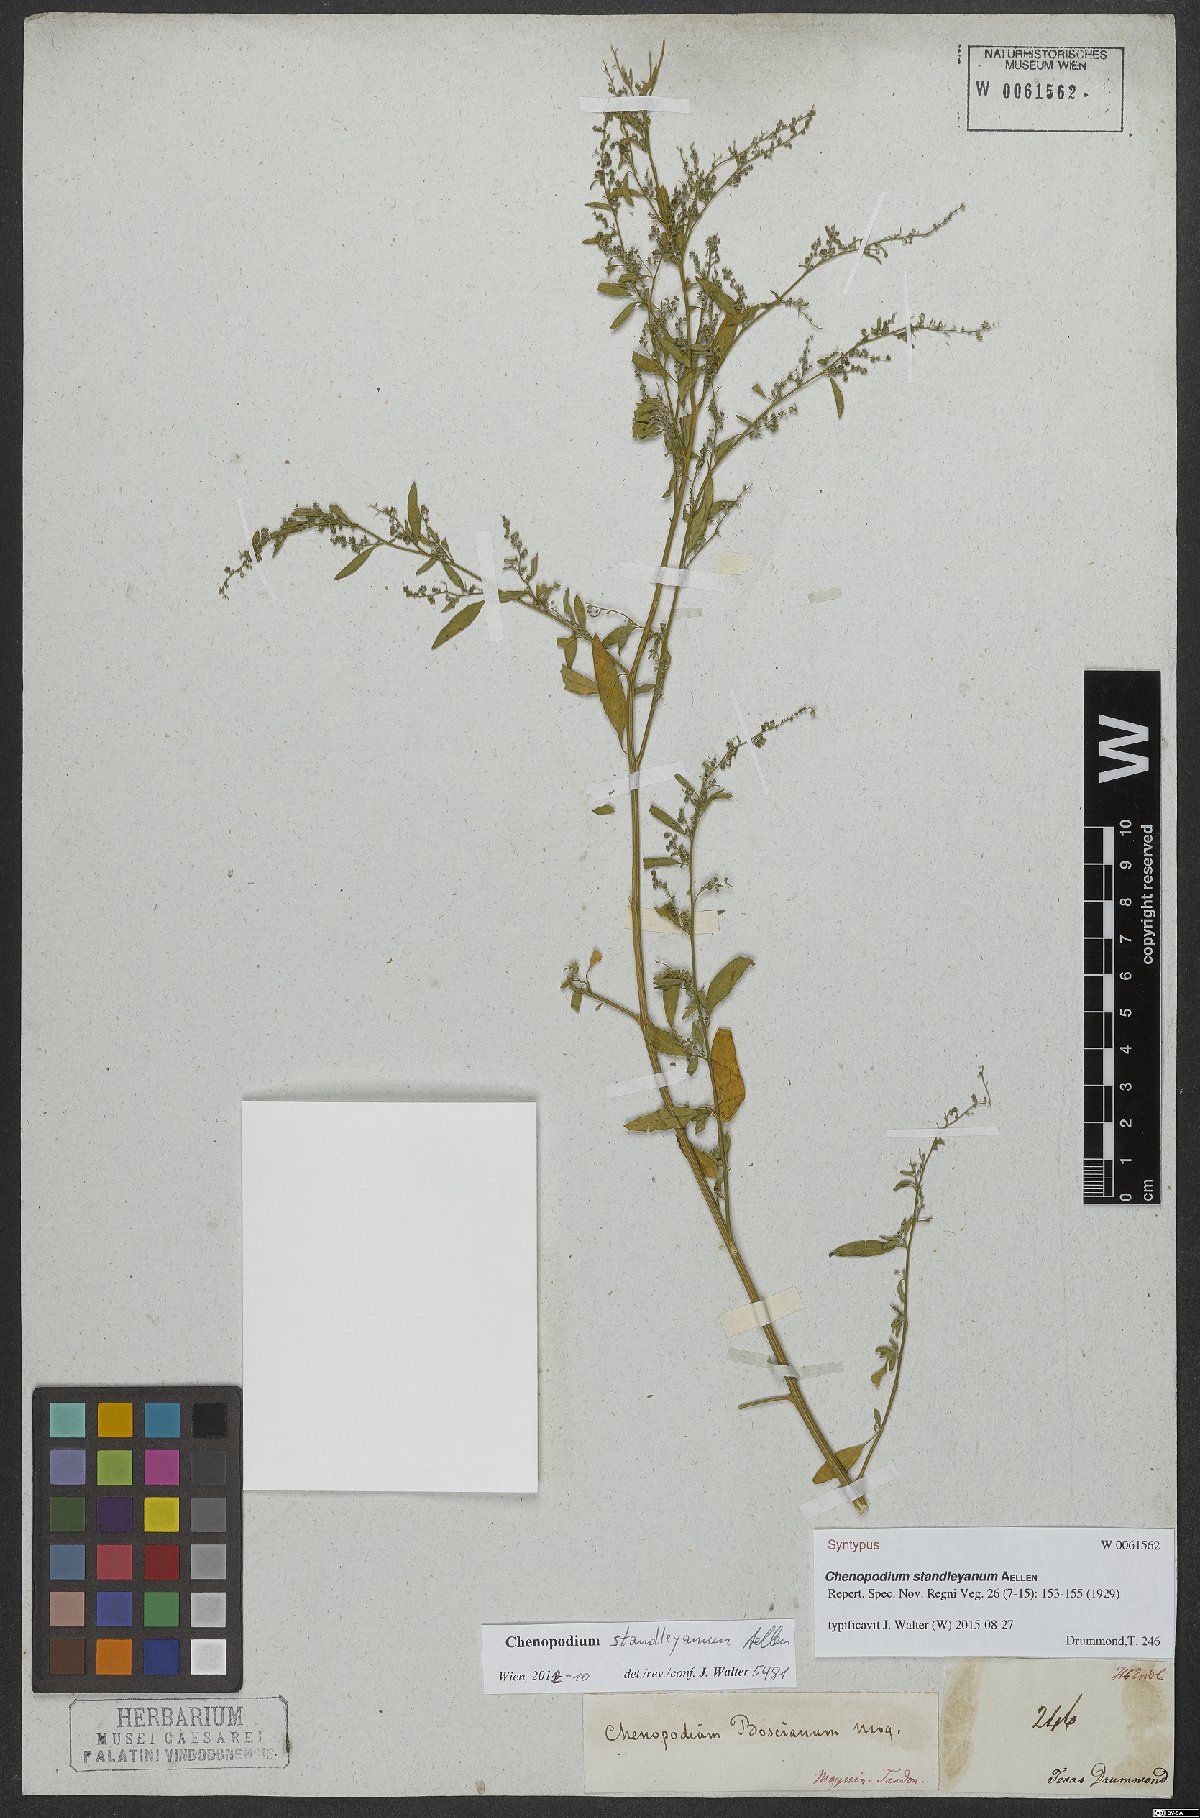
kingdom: Plantae
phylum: Tracheophyta
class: Magnoliopsida
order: Caryophyllales
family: Amaranthaceae
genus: Chenopodiastrum
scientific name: Chenopodiastrum standleyanum
